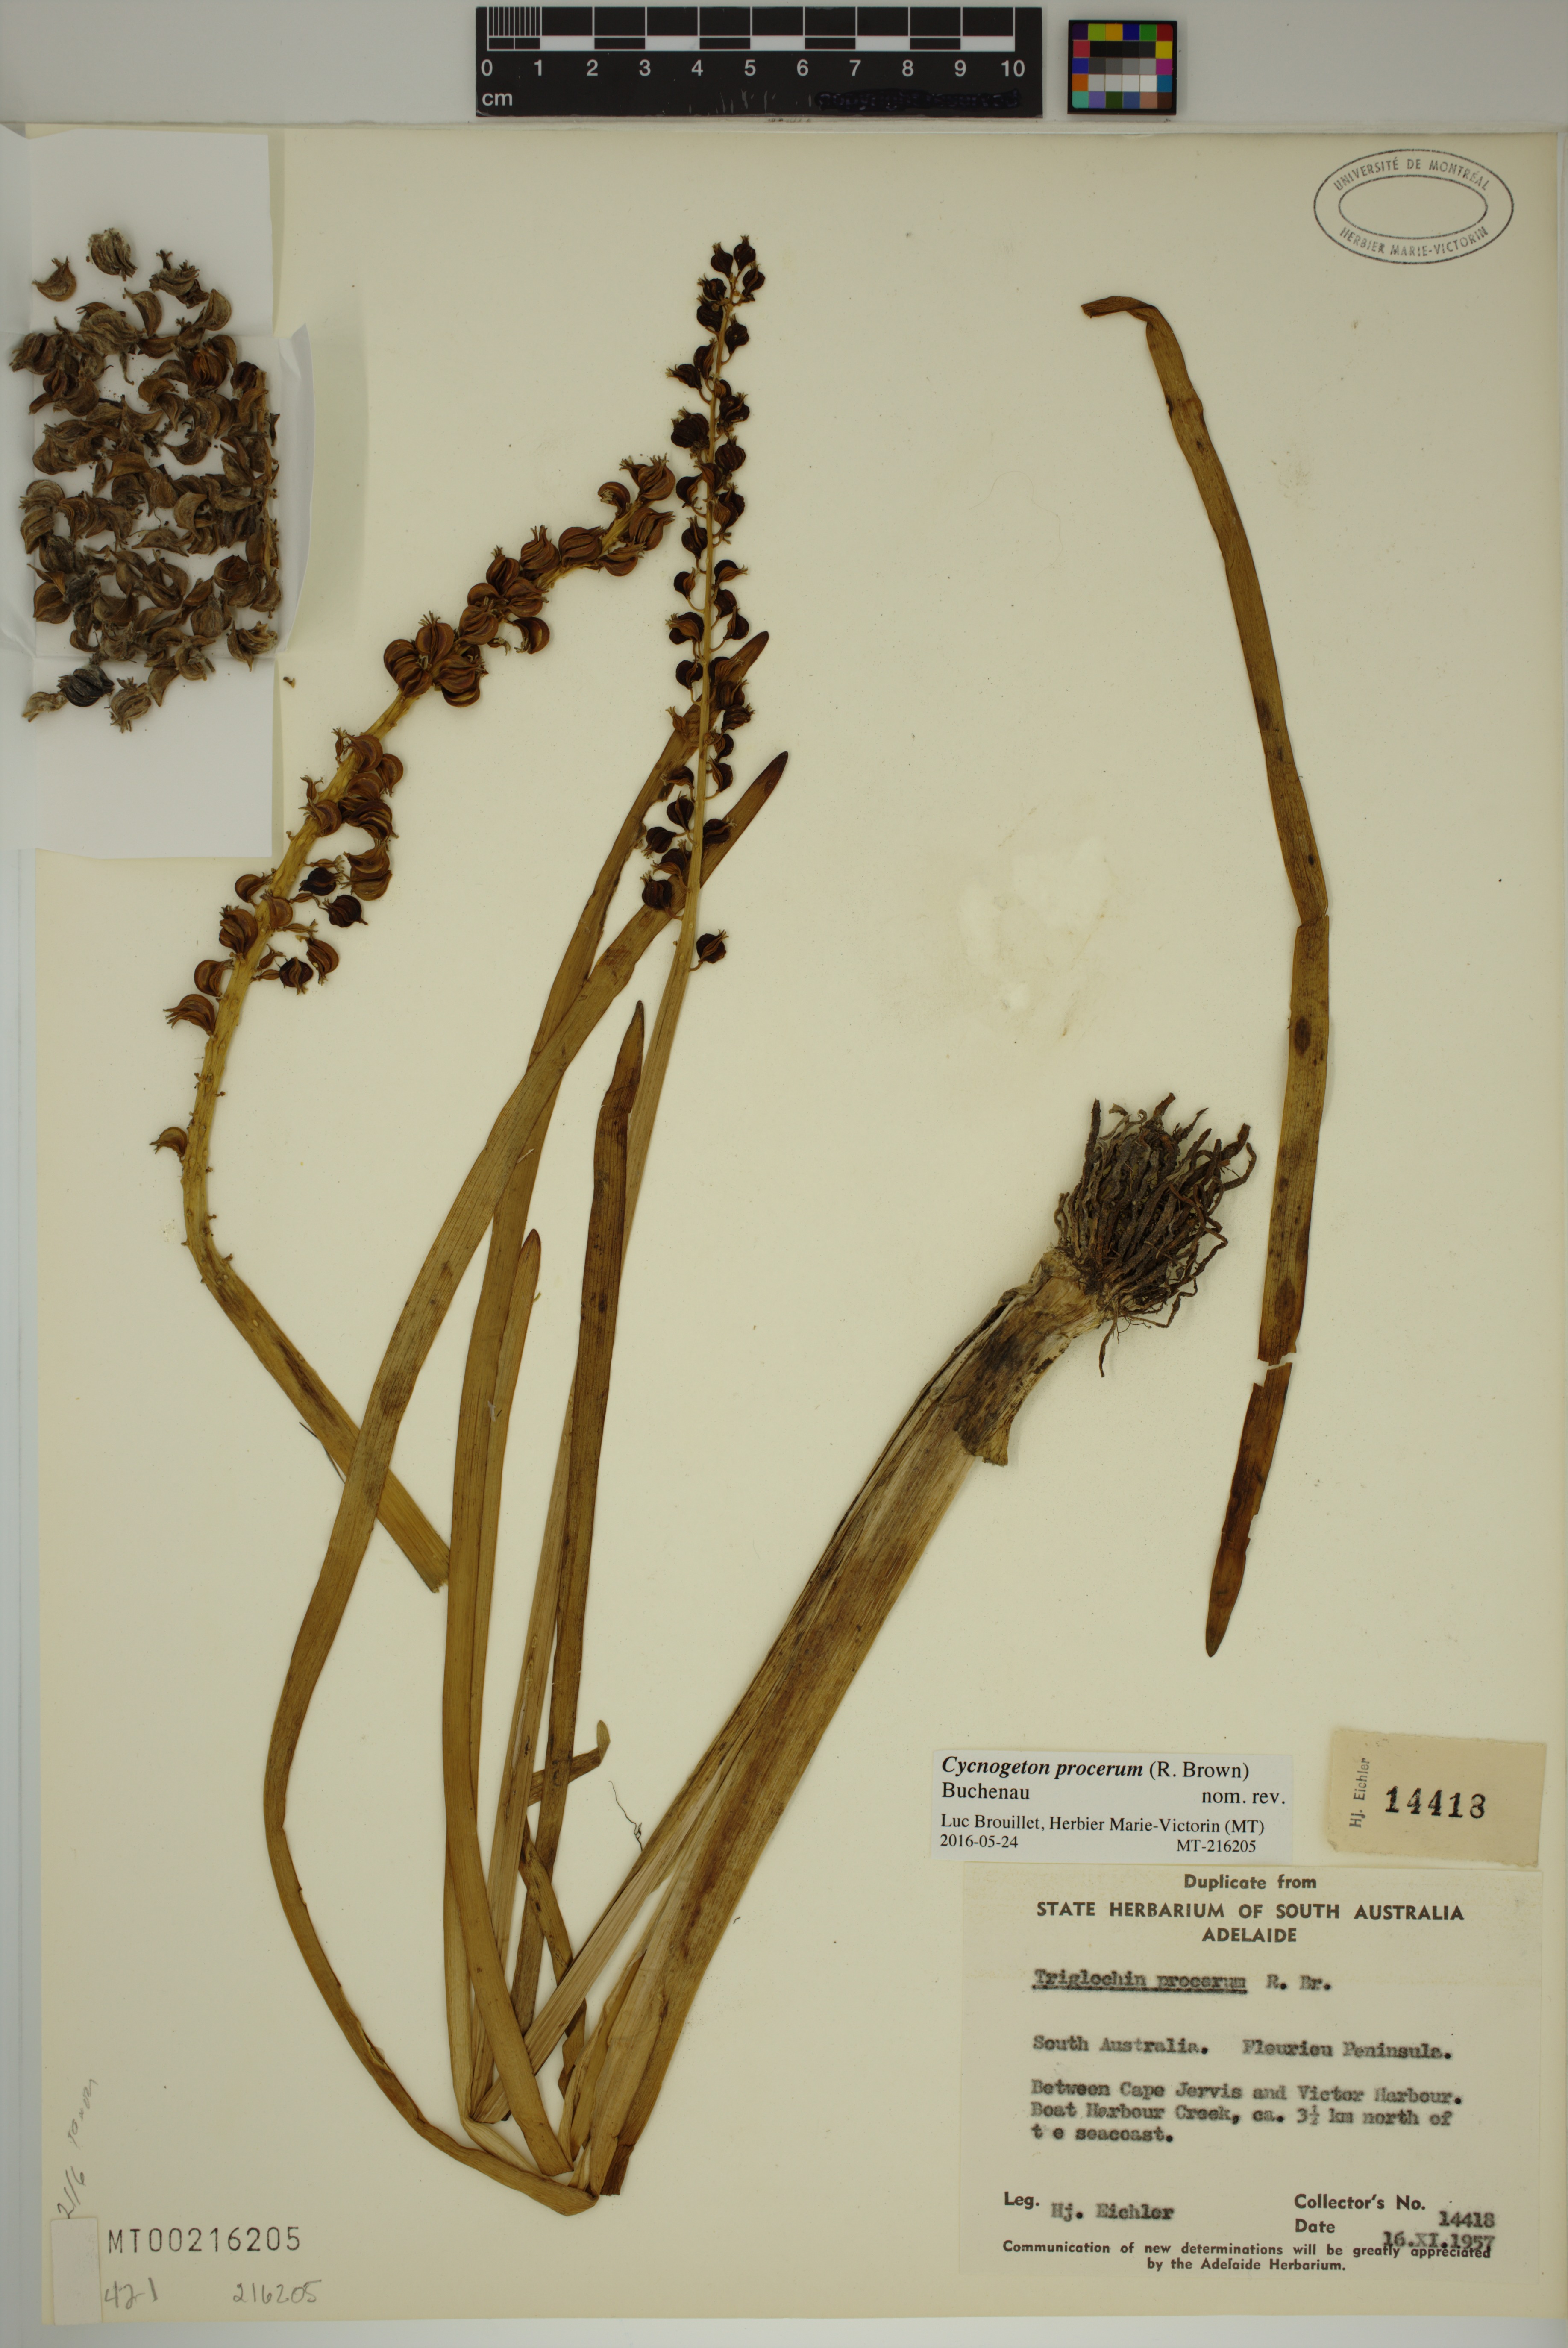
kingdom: Plantae
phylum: Tracheophyta
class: Liliopsida
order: Alismatales
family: Juncaginaceae
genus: Cycnogeton
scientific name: Cycnogeton procerum
